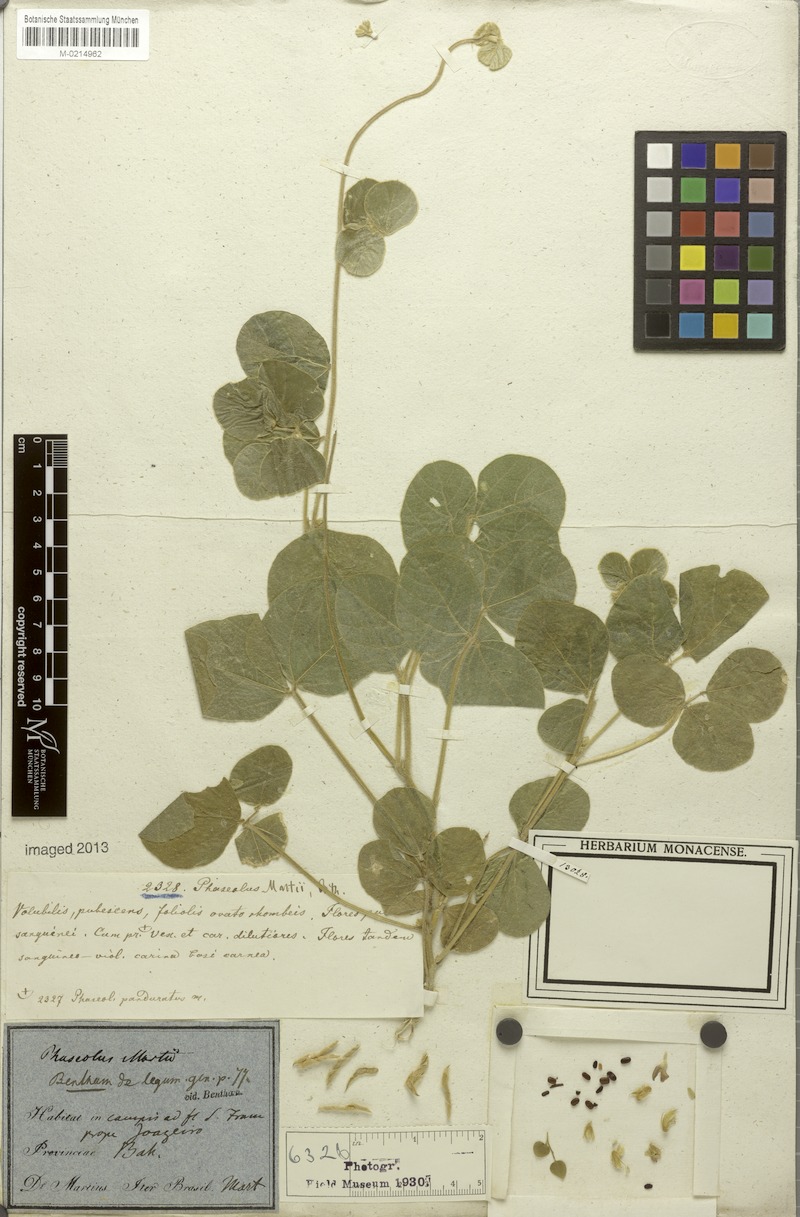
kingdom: Plantae
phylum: Tracheophyta
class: Magnoliopsida
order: Fabales
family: Fabaceae
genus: Macroptilium
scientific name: Macroptilium martii
